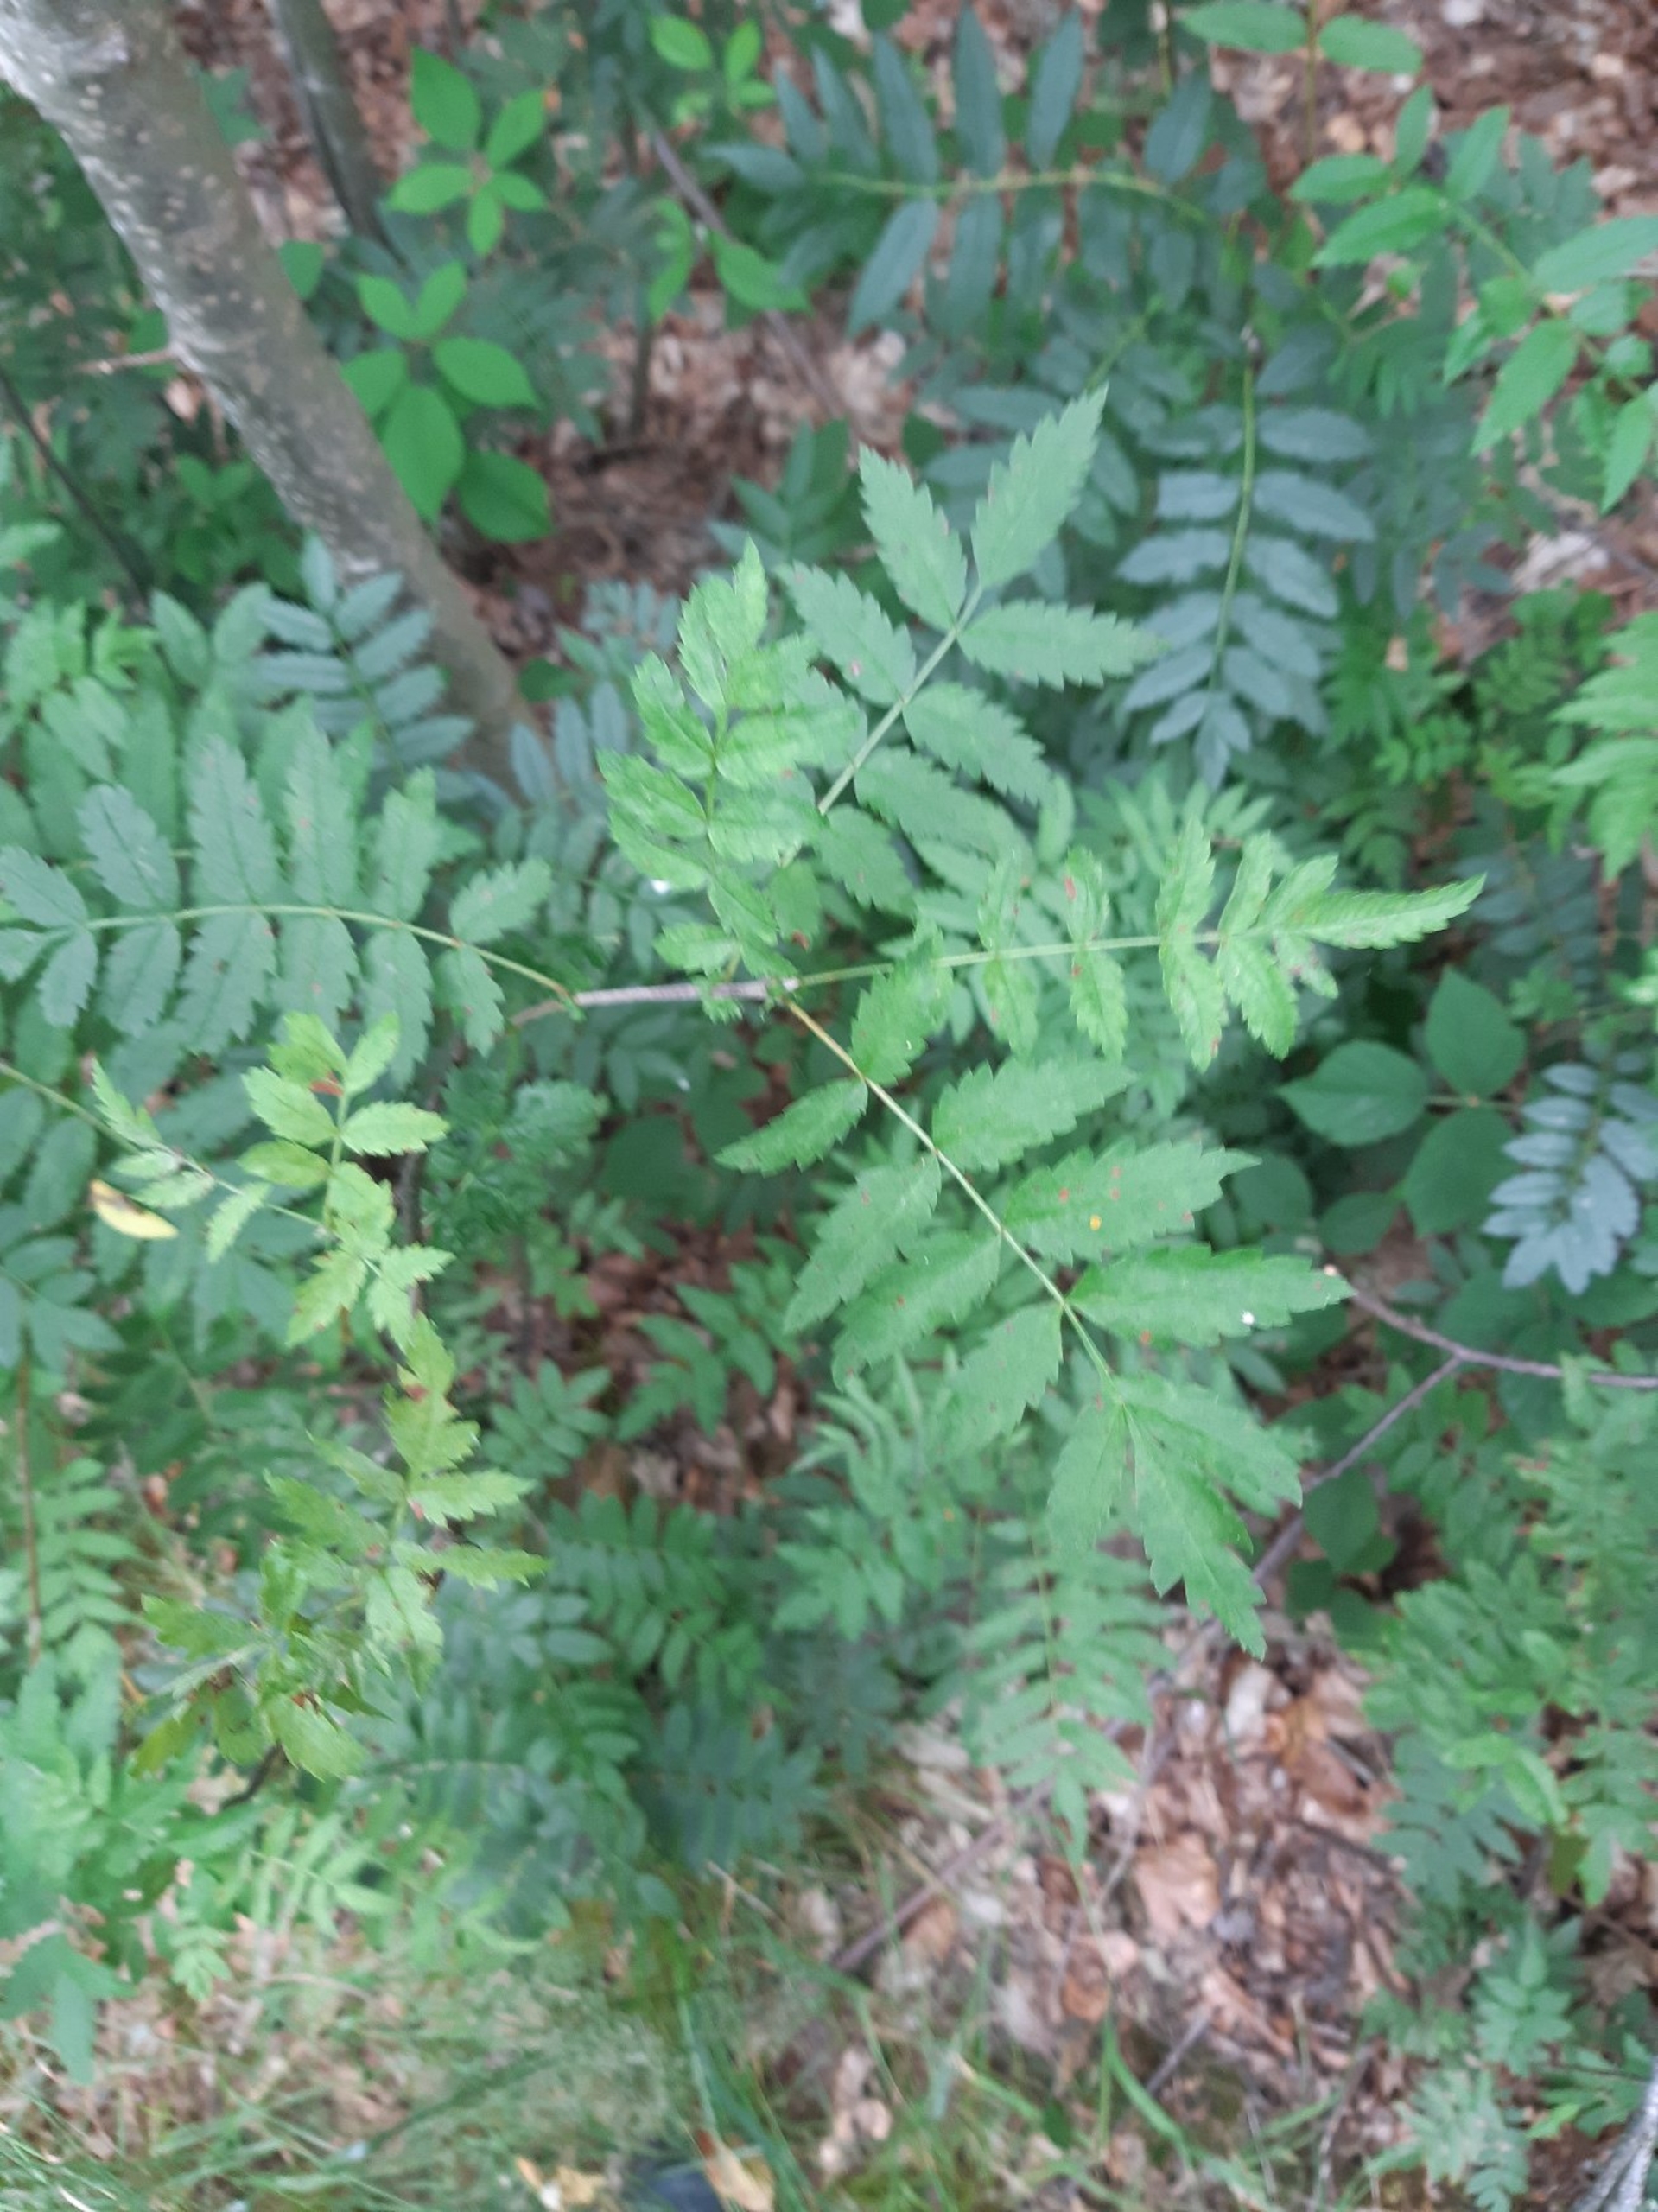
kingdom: Plantae
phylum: Tracheophyta
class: Magnoliopsida
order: Rosales
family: Rosaceae
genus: Sorbus
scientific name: Sorbus aucuparia
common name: Almindelig røn
